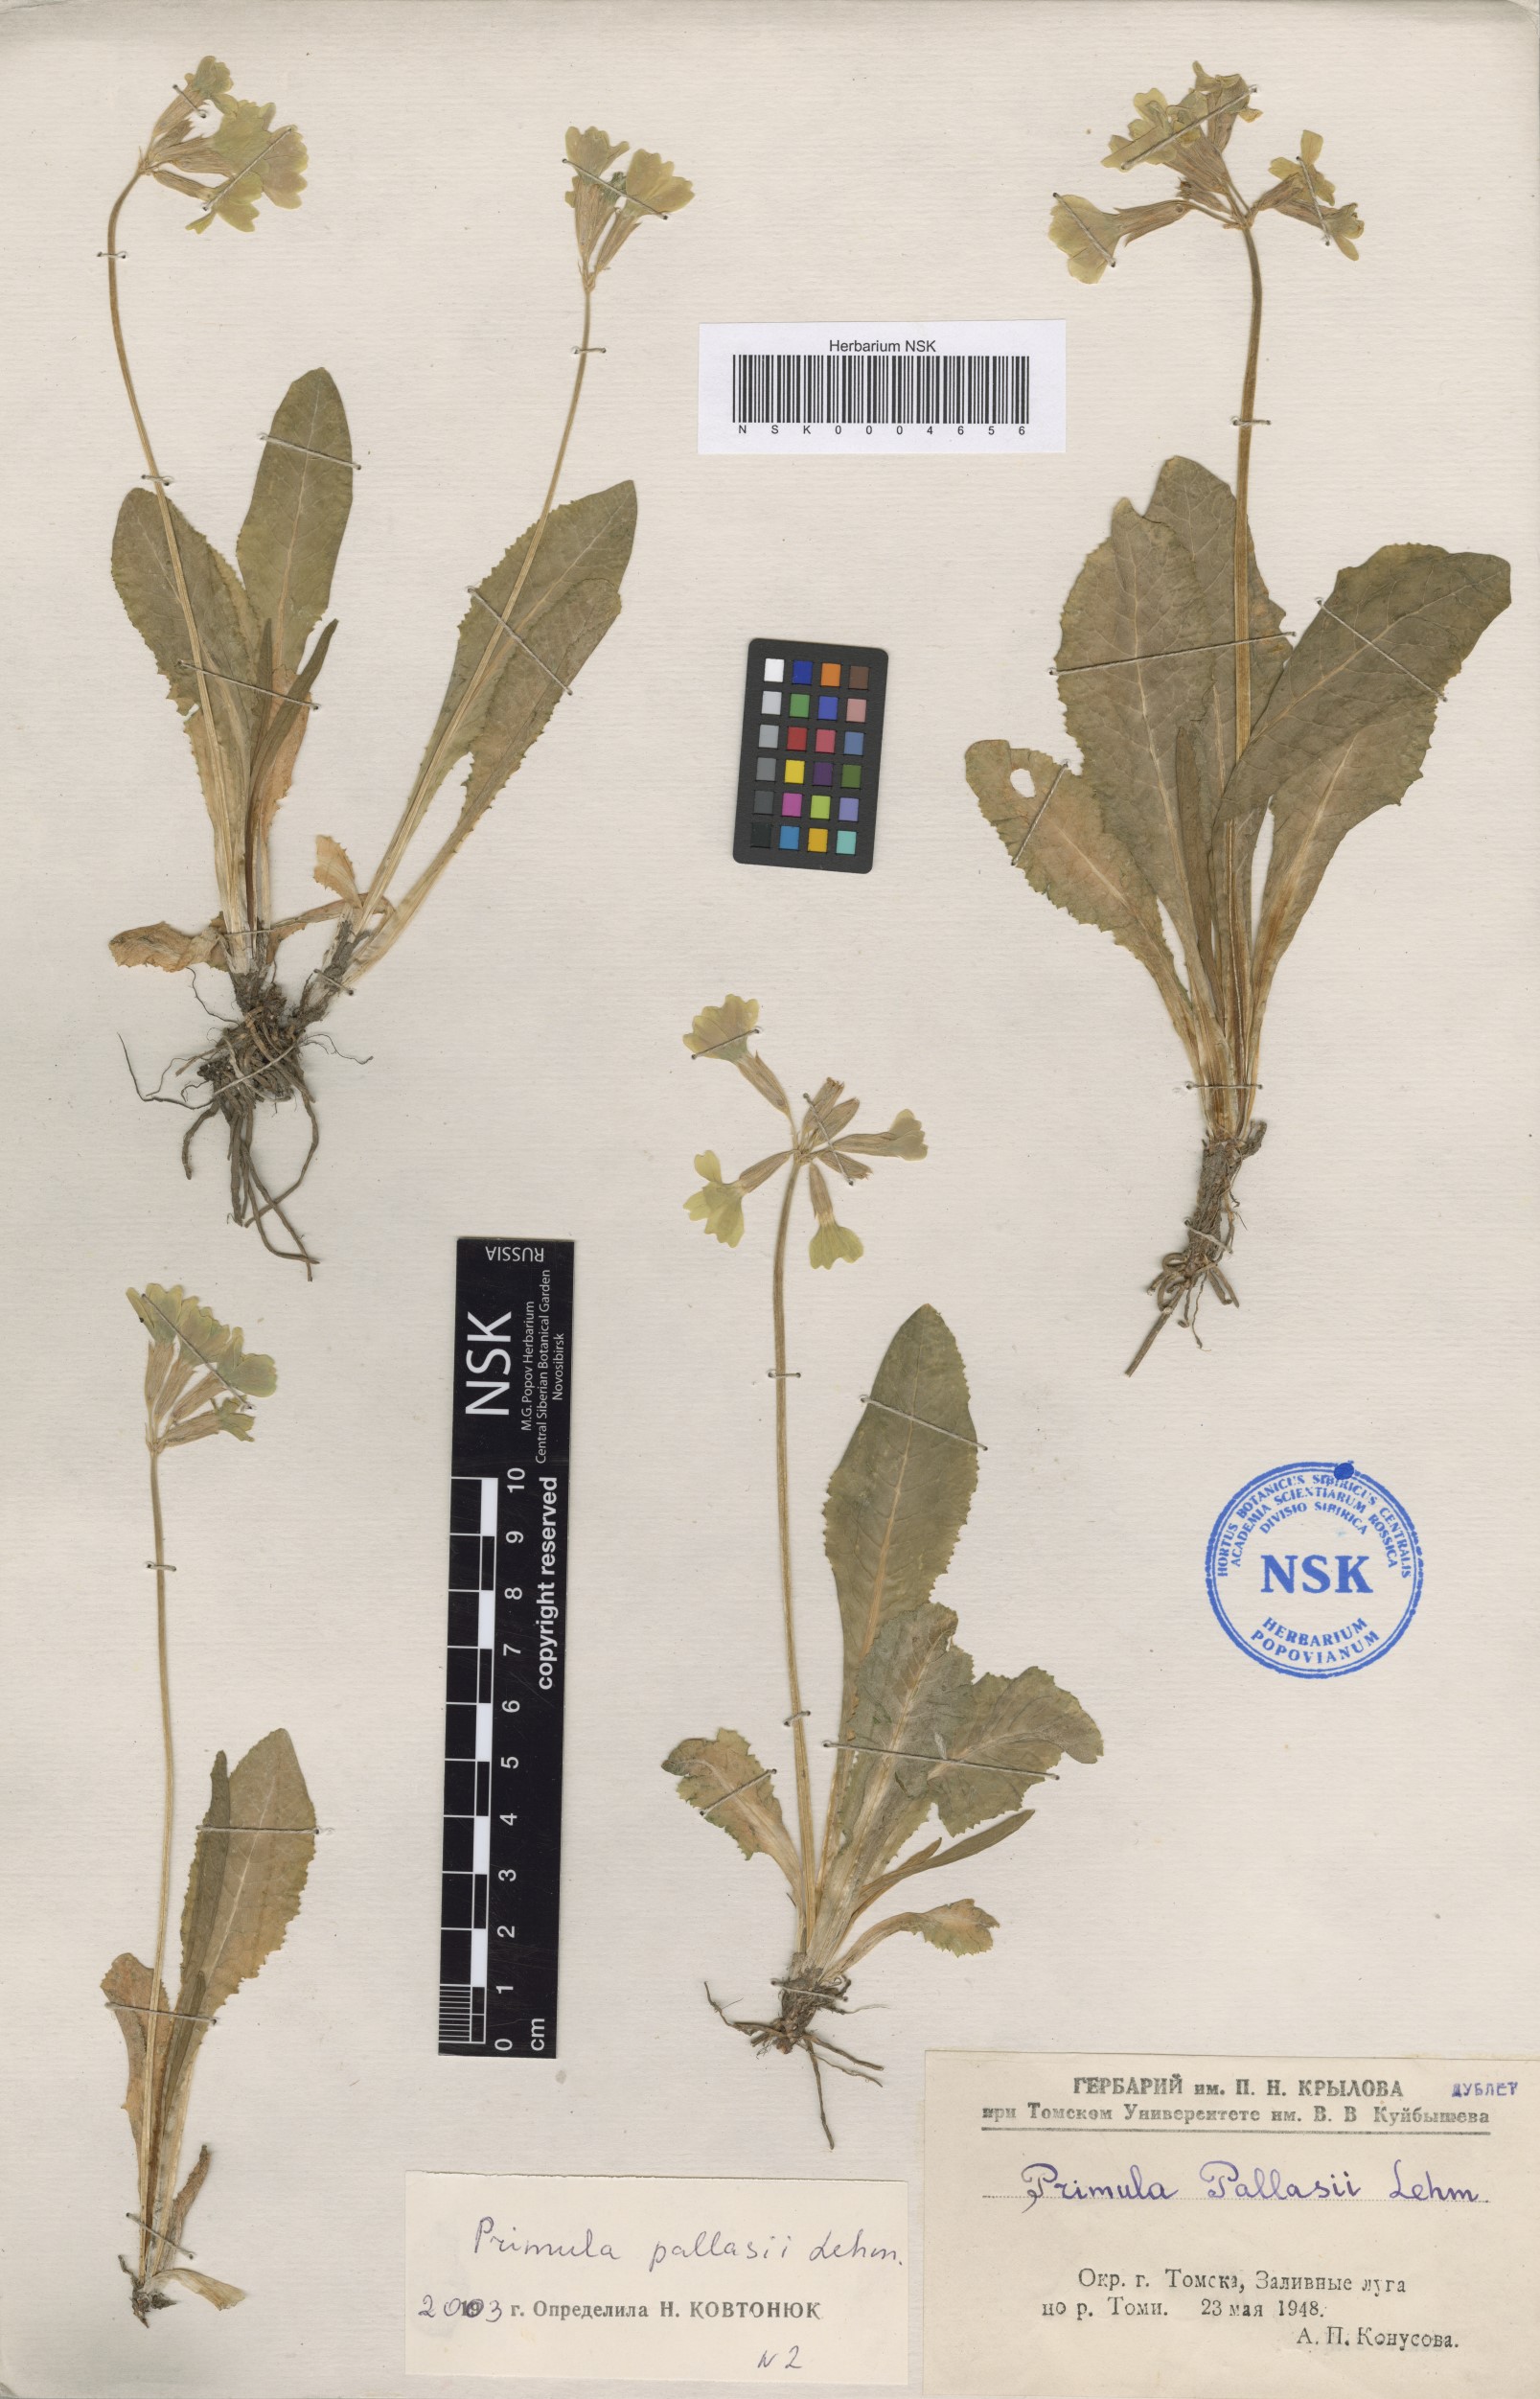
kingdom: Plantae
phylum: Tracheophyta
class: Magnoliopsida
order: Ericales
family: Primulaceae
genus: Primula
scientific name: Primula elatior
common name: Oxlip
